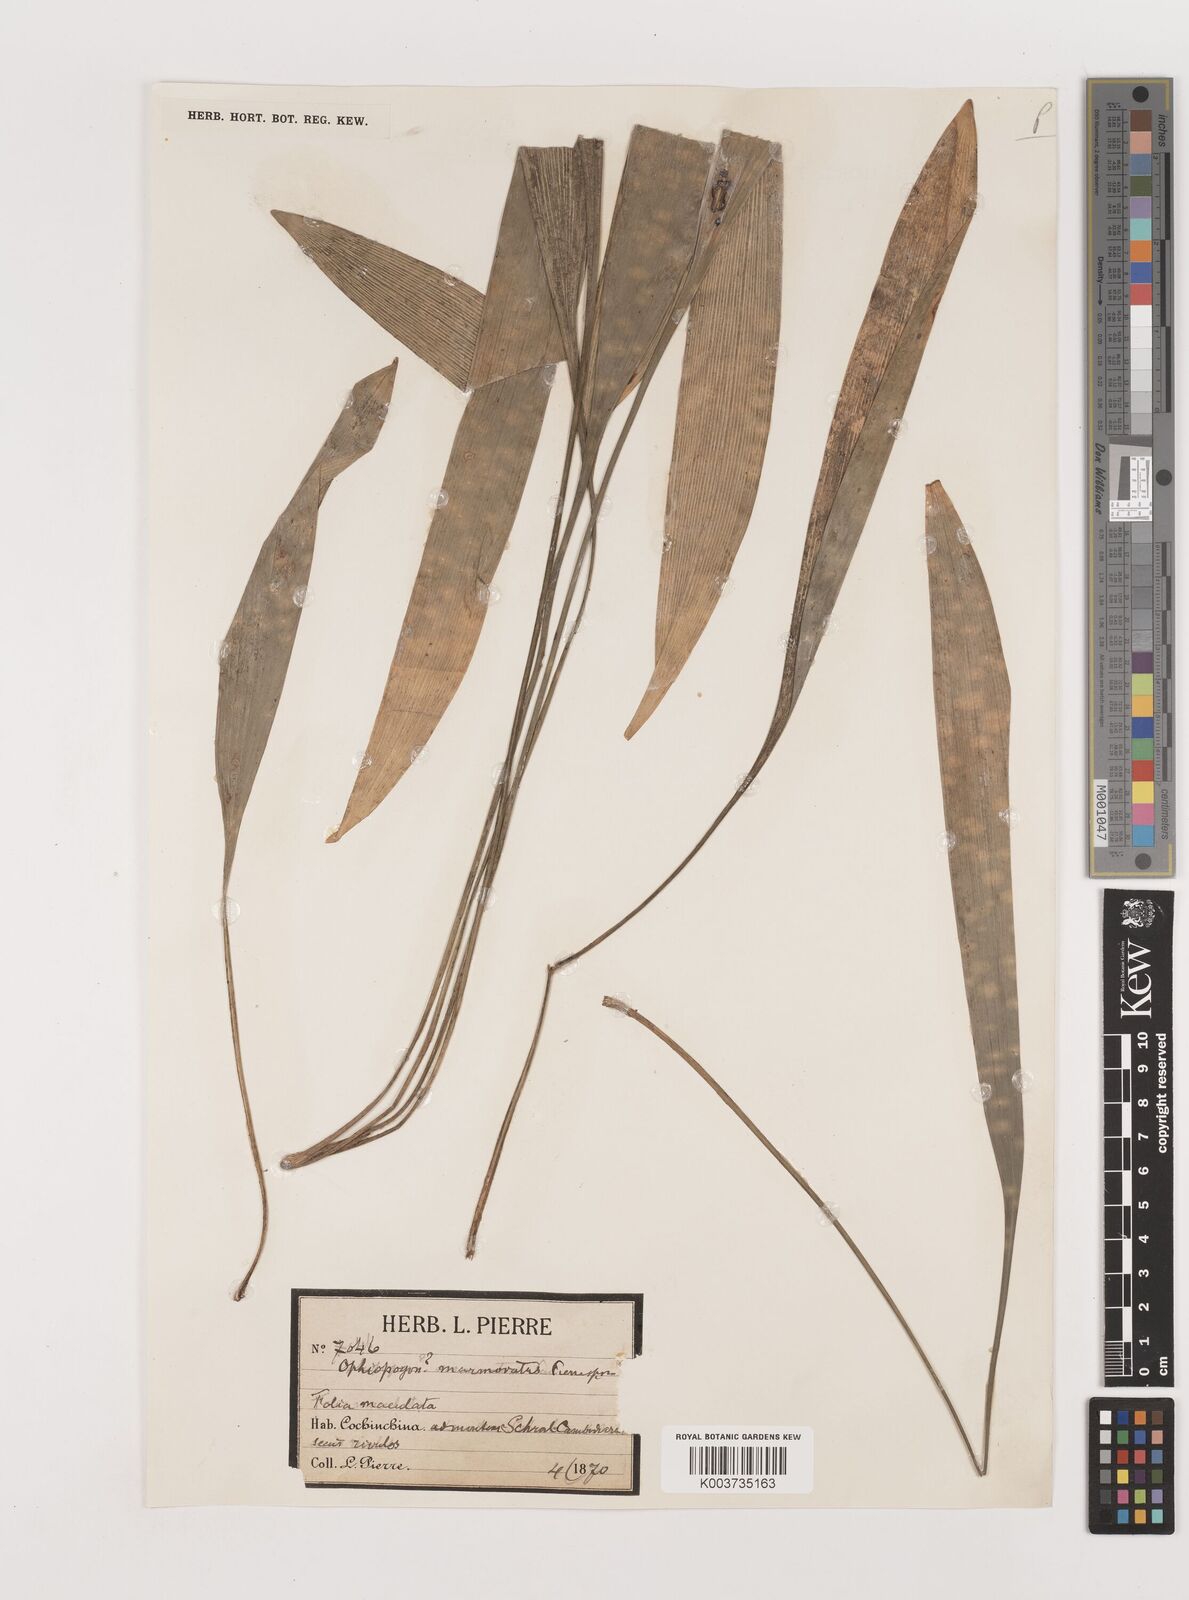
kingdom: Plantae
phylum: Tracheophyta
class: Liliopsida
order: Asparagales
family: Asparagaceae
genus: Ophiopogon
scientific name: Ophiopogon marmoratus
